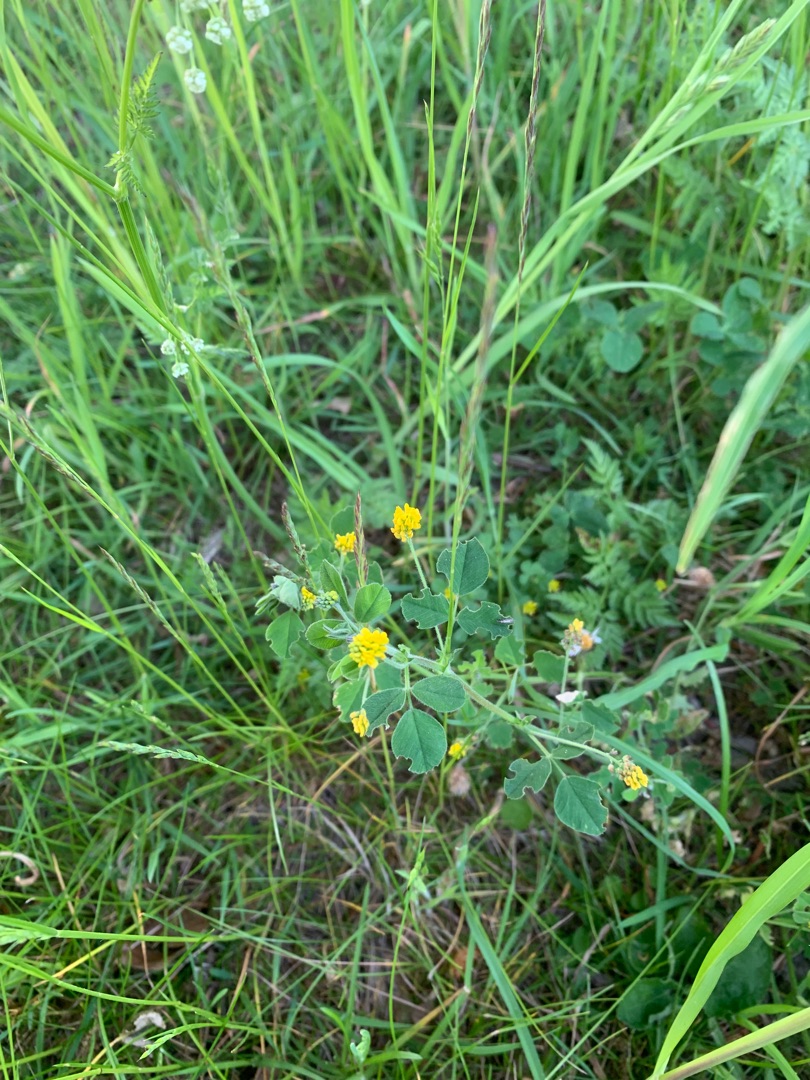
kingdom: Plantae
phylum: Tracheophyta
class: Magnoliopsida
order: Fabales
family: Fabaceae
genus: Medicago
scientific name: Medicago lupulina
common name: Humle-sneglebælg
